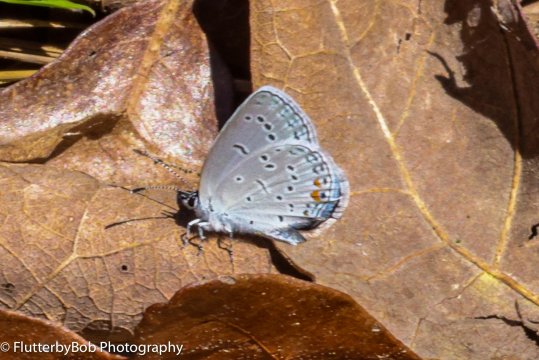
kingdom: Animalia
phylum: Arthropoda
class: Insecta
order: Lepidoptera
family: Lycaenidae
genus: Elkalyce
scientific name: Elkalyce comyntas
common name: Eastern Tailed-Blue
